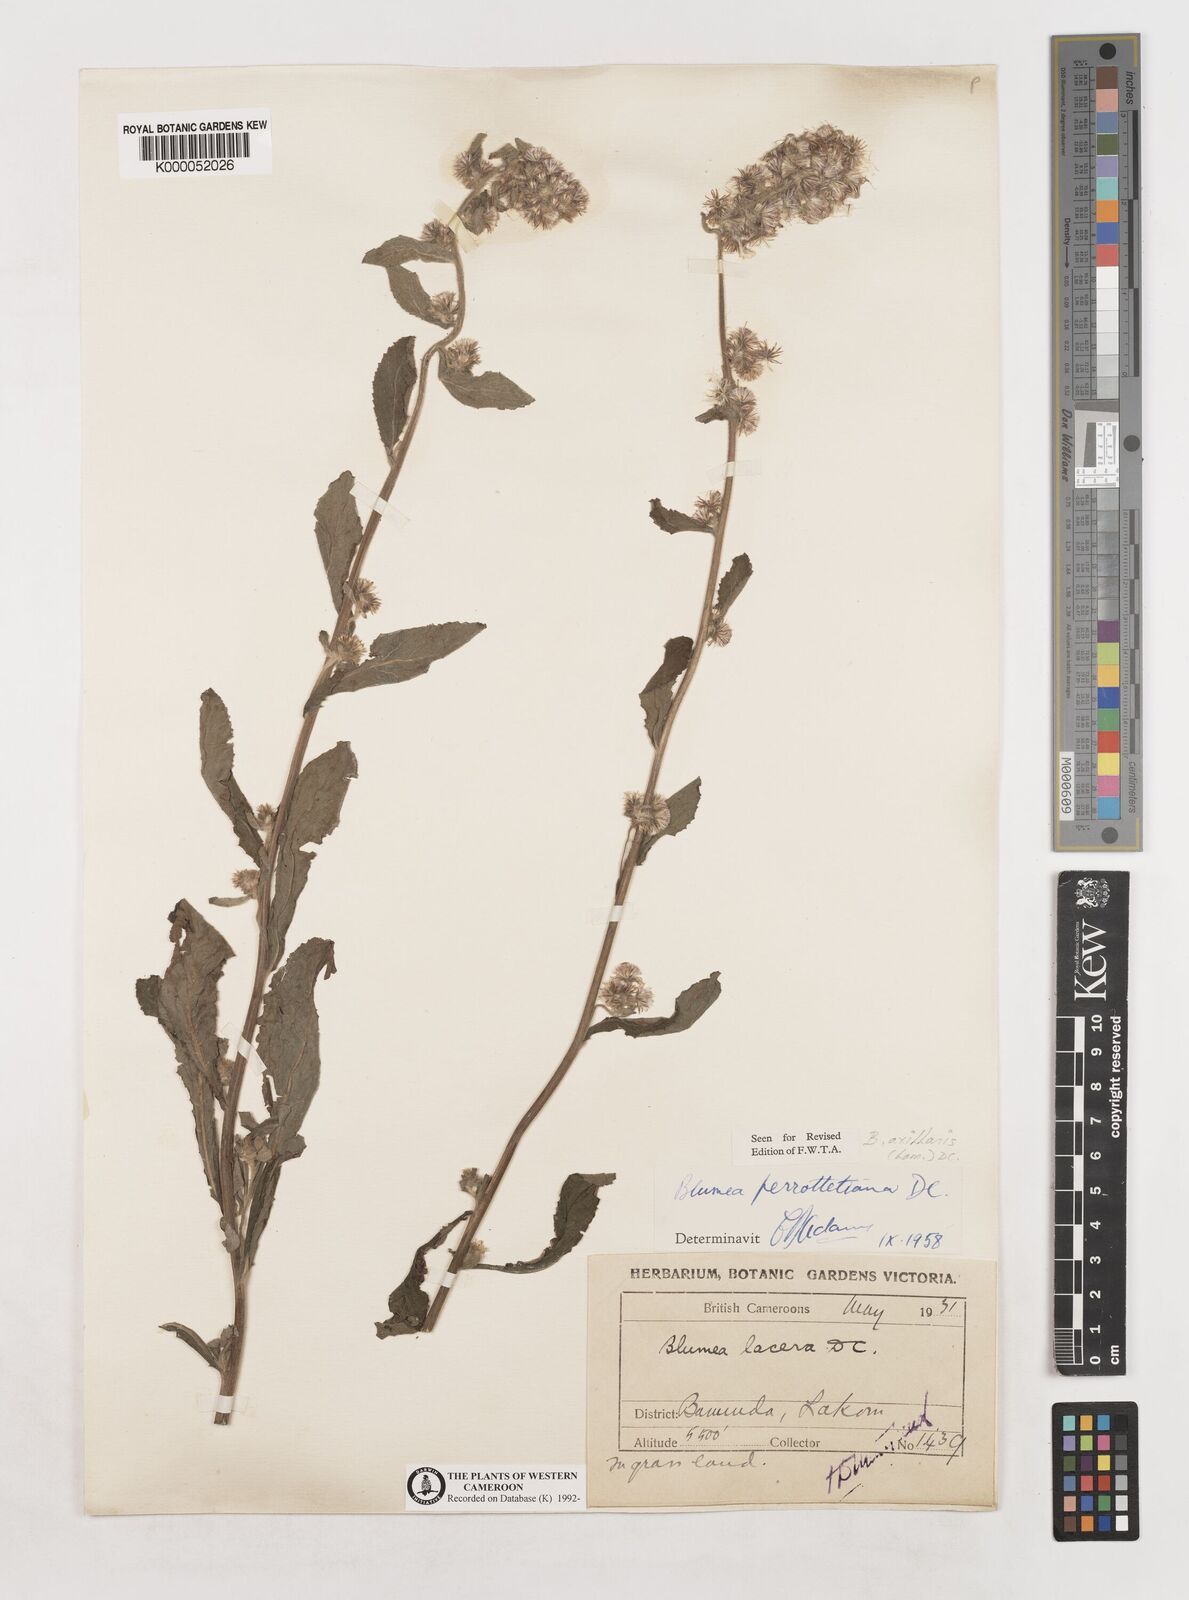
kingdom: Plantae
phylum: Tracheophyta
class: Magnoliopsida
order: Asterales
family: Asteraceae
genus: Blumea
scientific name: Blumea axillaris
